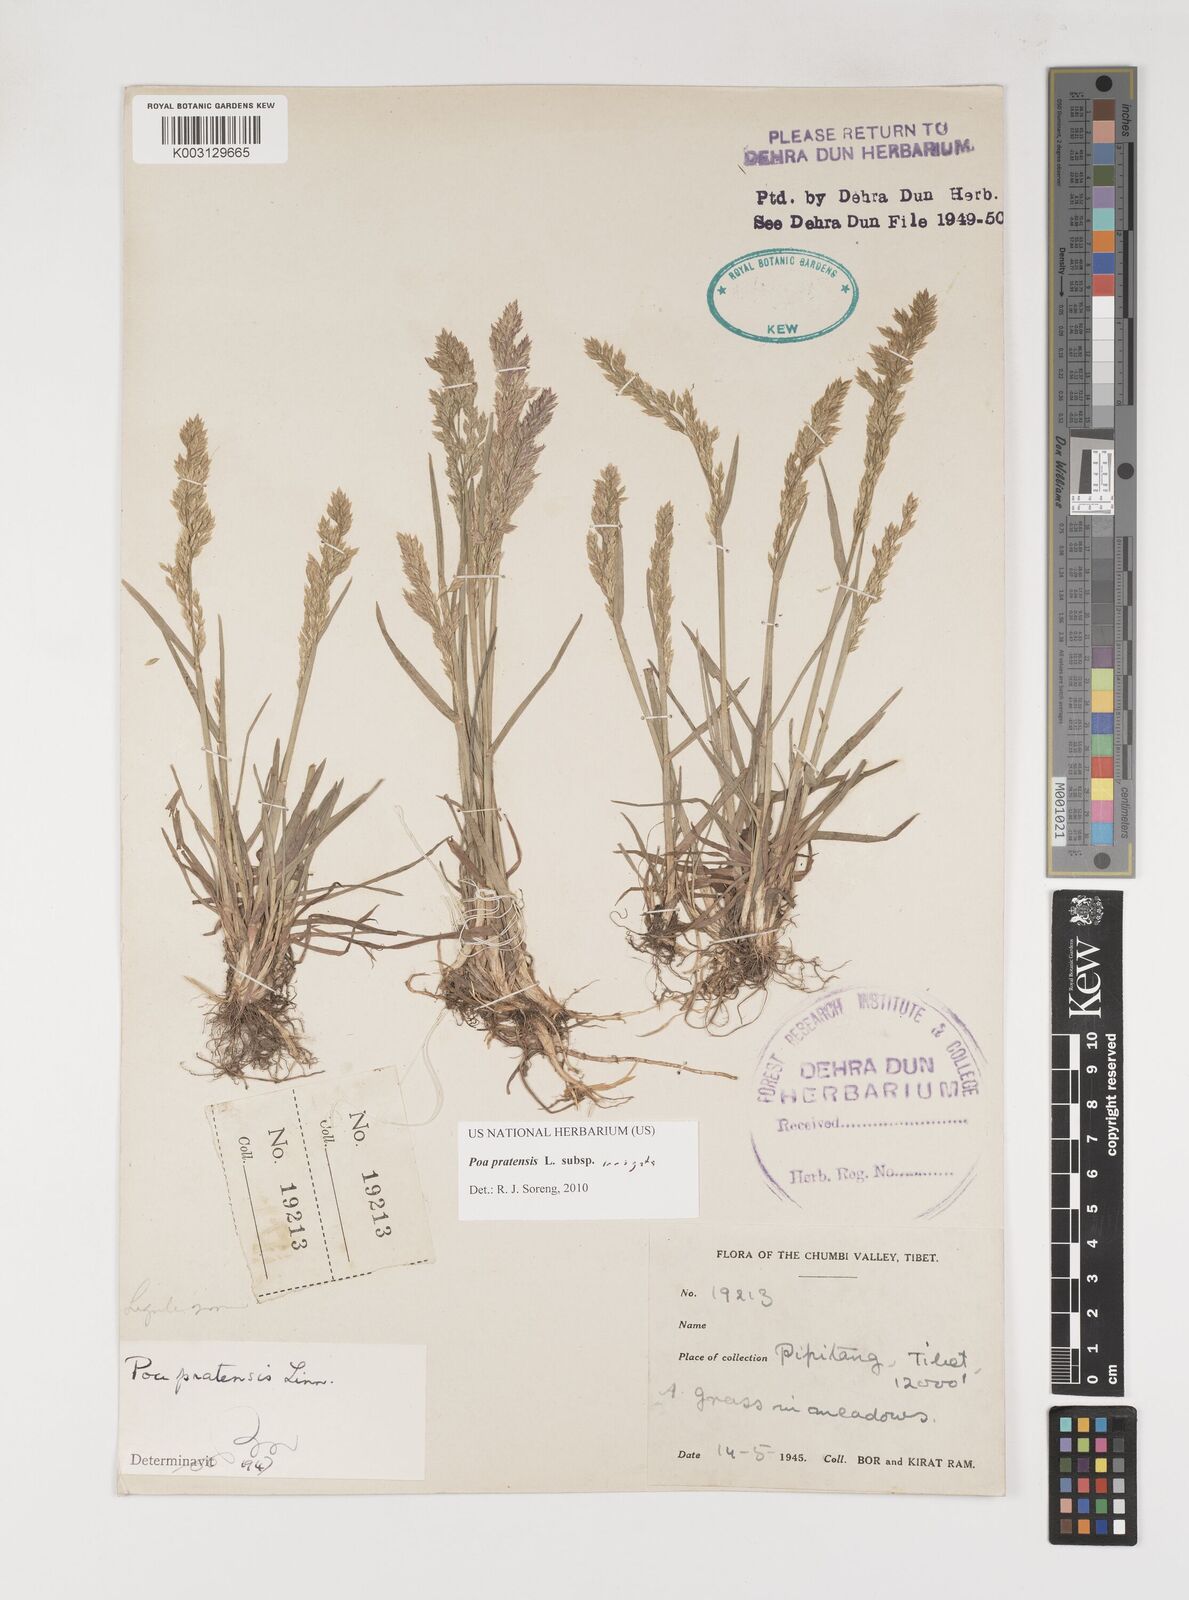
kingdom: Plantae
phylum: Tracheophyta
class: Liliopsida
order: Poales
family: Poaceae
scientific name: Poaceae
